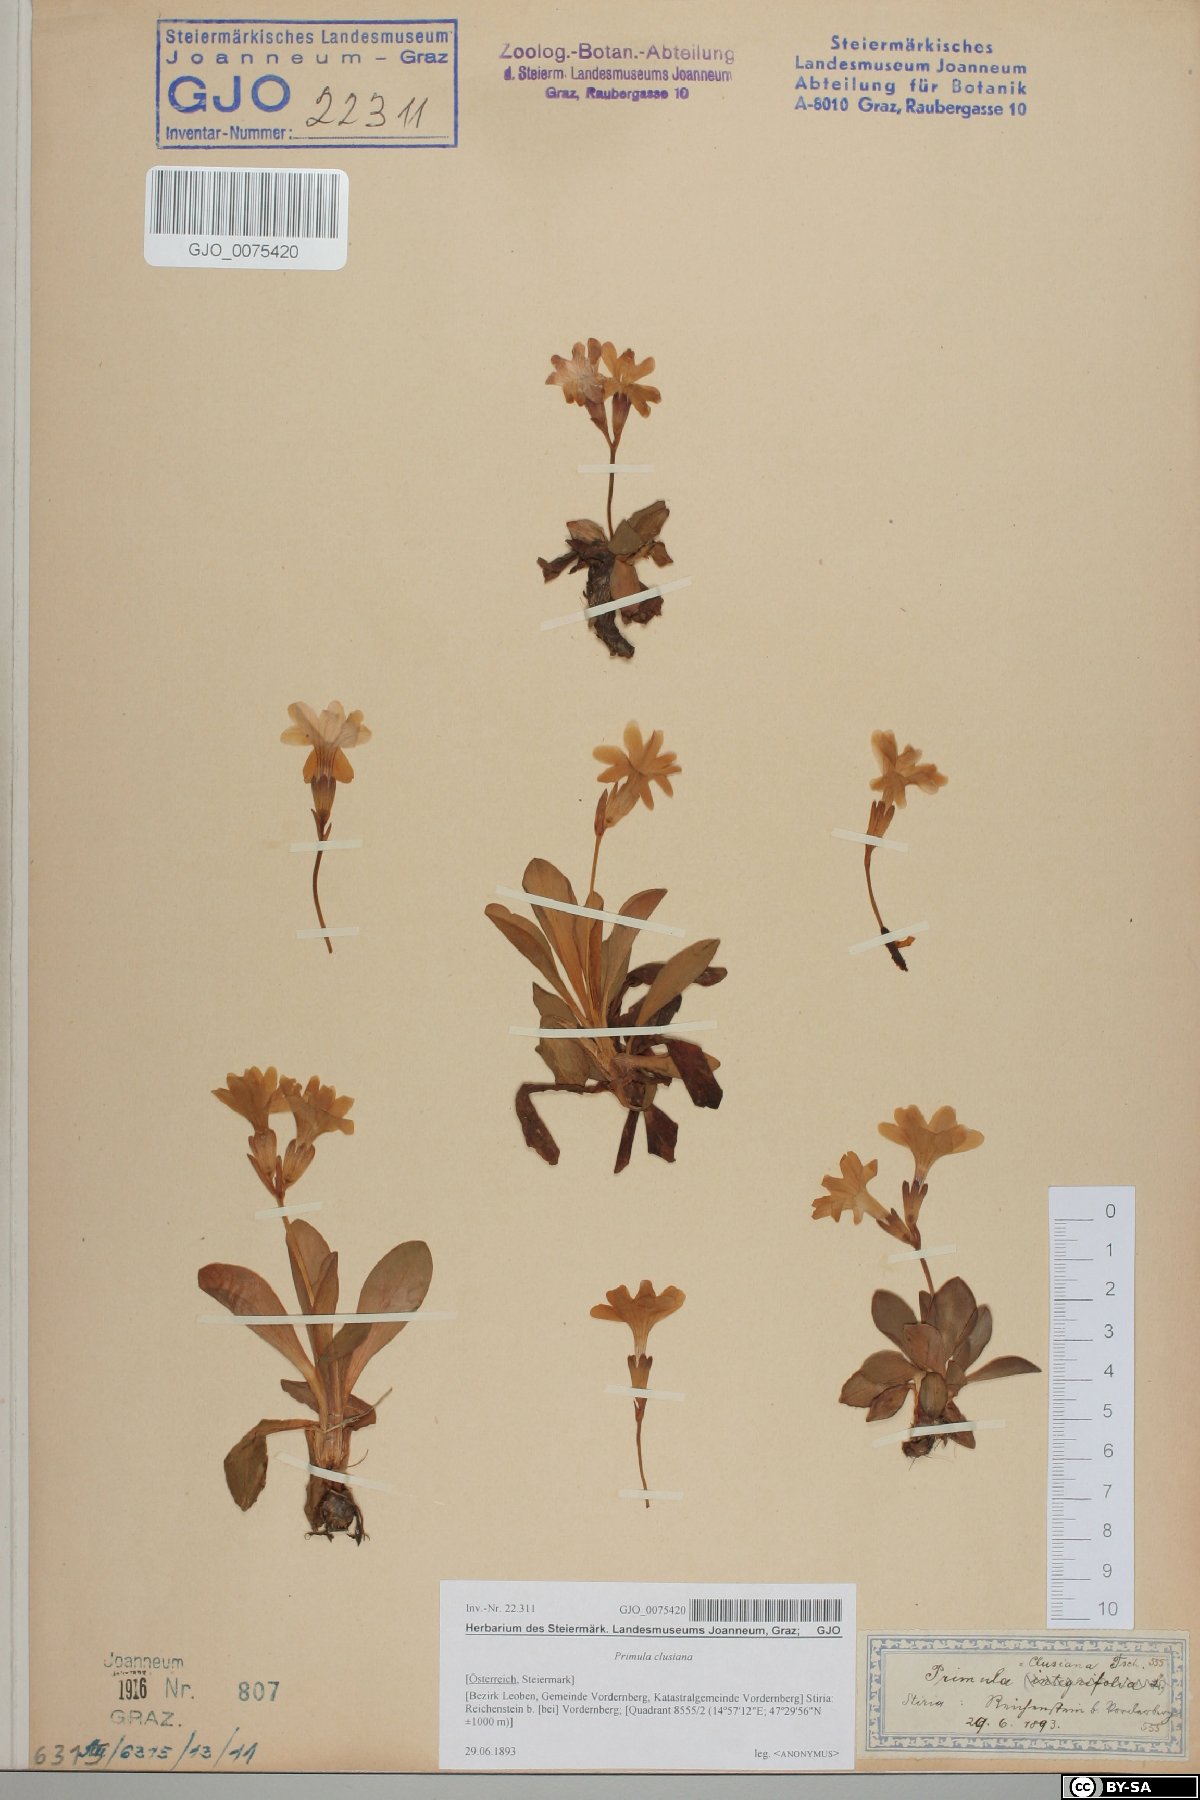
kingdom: Plantae
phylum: Tracheophyta
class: Magnoliopsida
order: Ericales
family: Primulaceae
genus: Primula
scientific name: Primula clusiana
